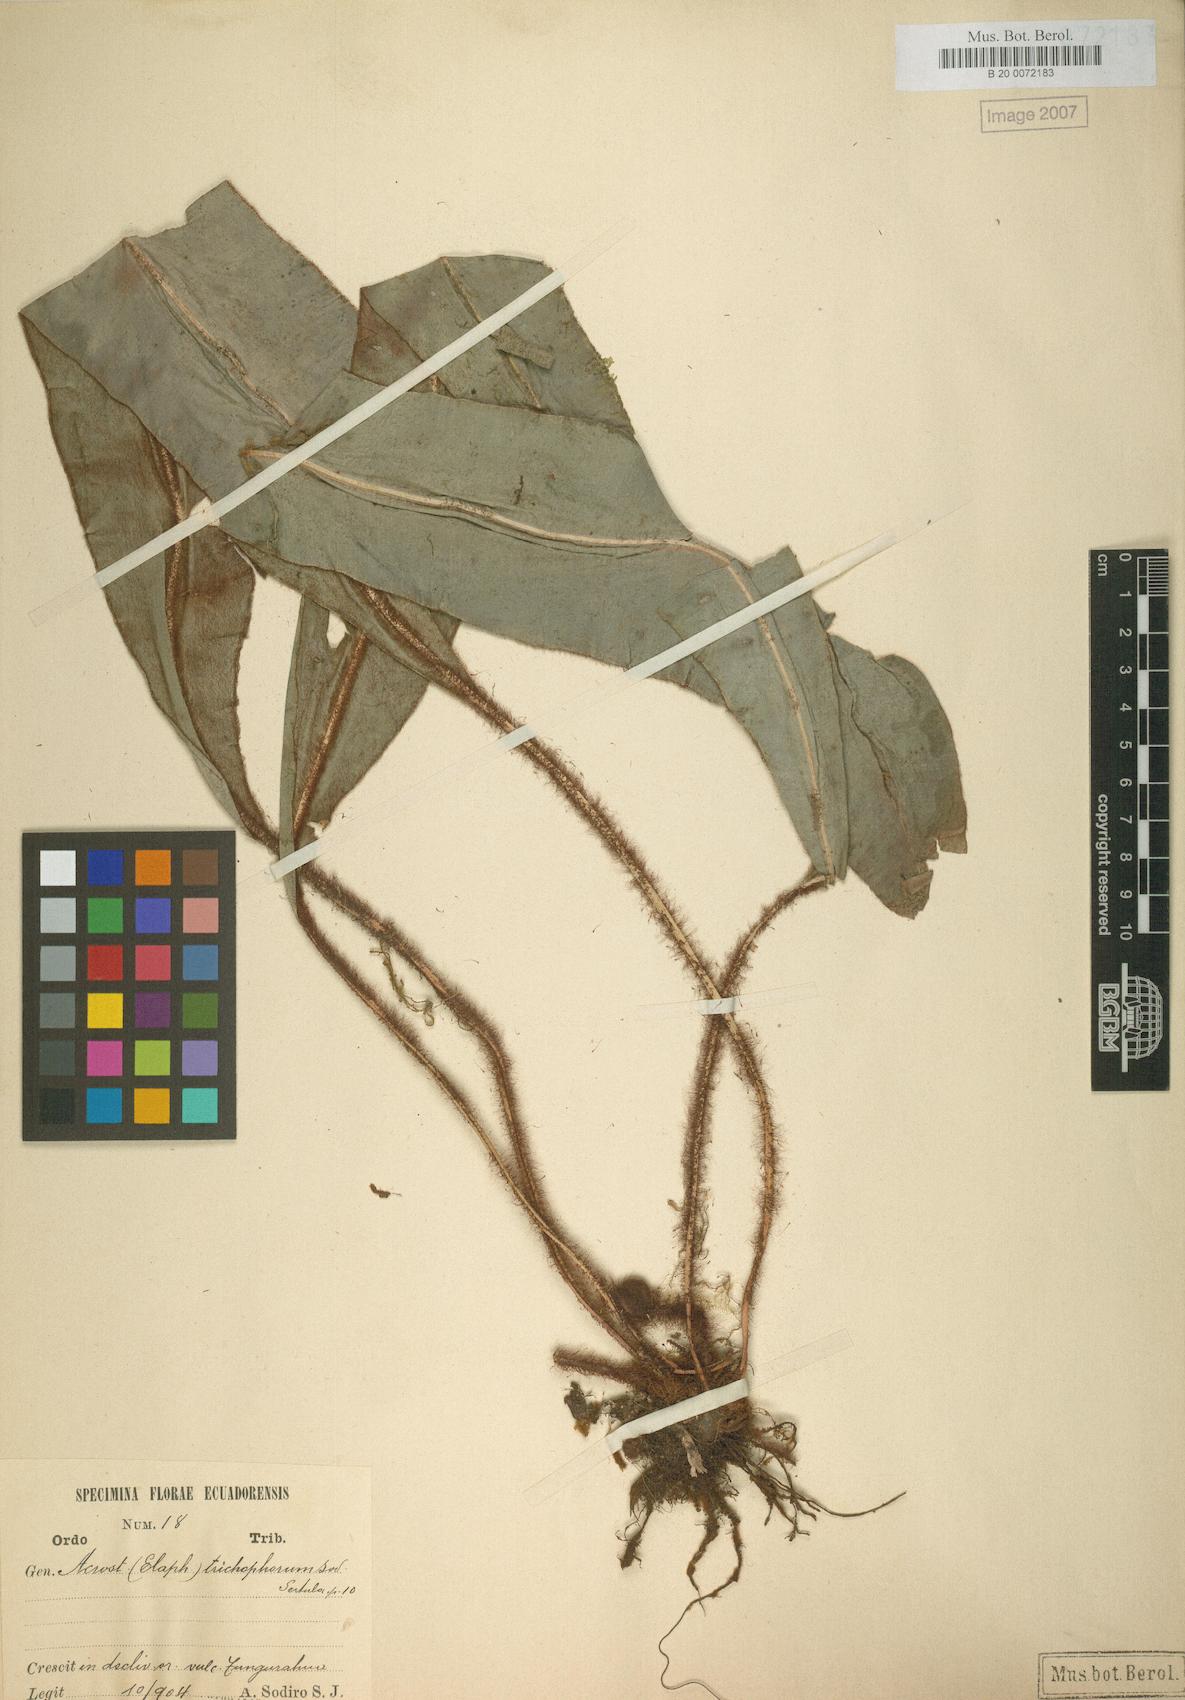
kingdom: Plantae
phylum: Tracheophyta
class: Polypodiopsida
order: Polypodiales
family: Dryopteridaceae
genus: Elaphoglossum
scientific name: Elaphoglossum trichophorum
